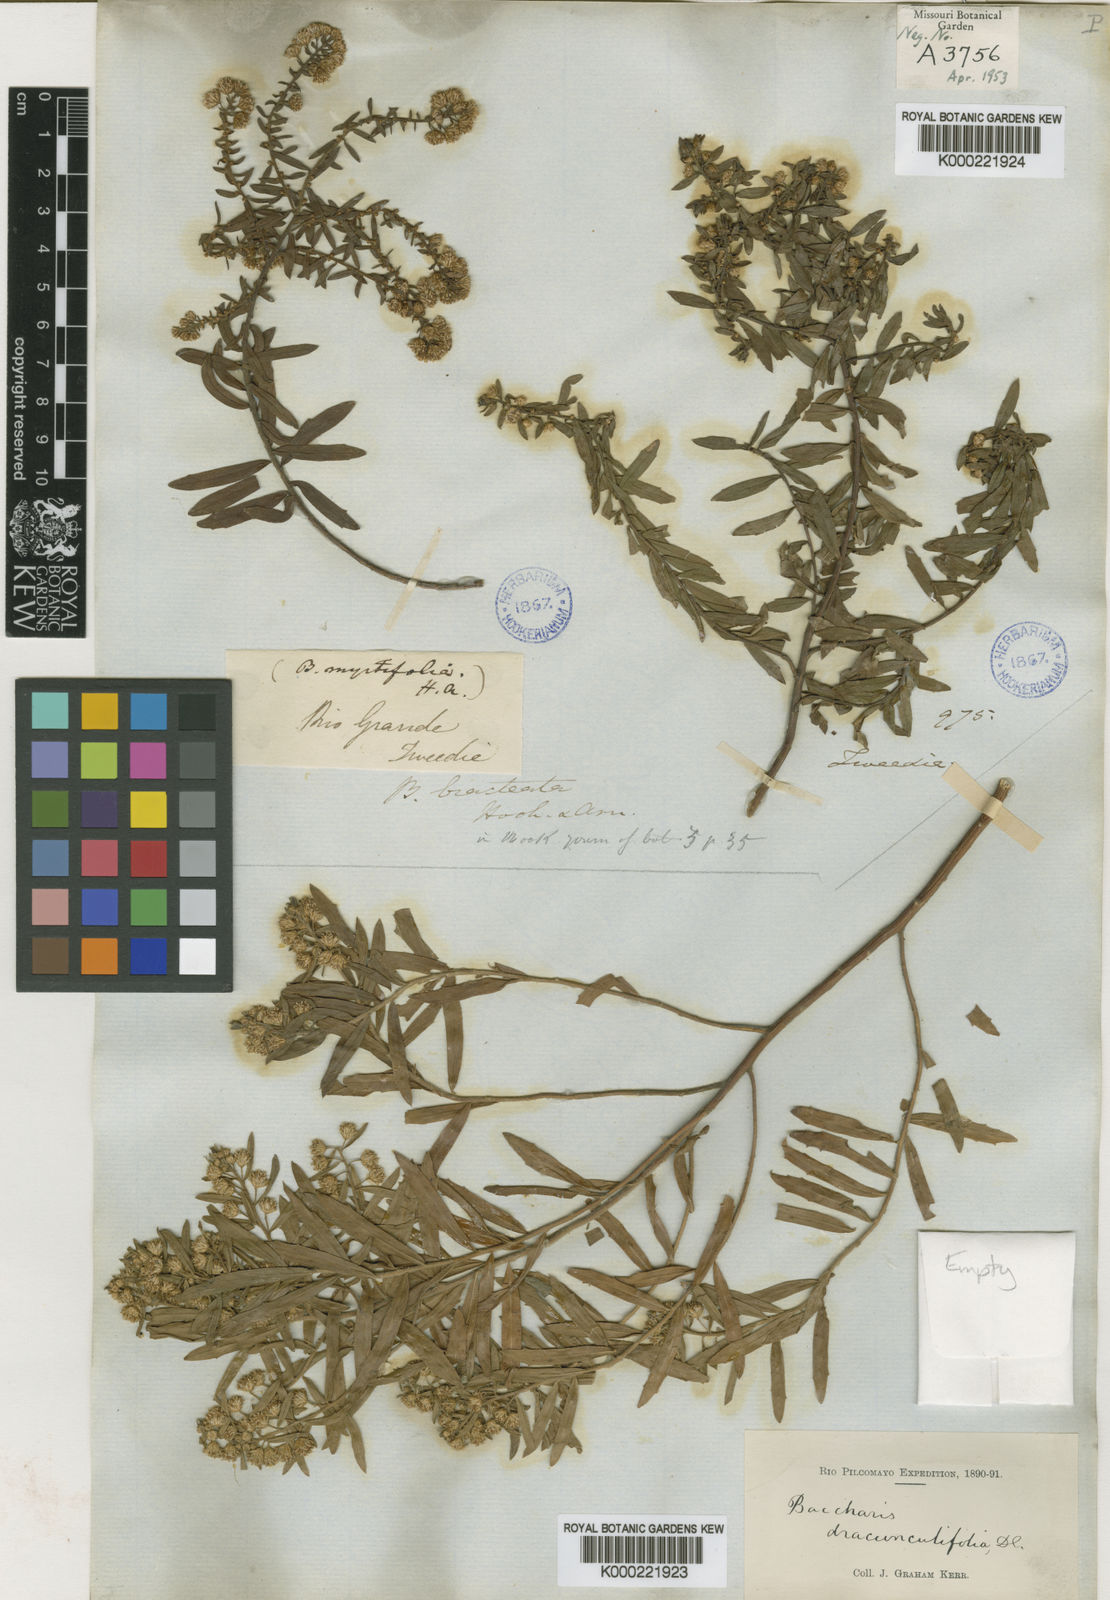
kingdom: Plantae
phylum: Tracheophyta
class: Magnoliopsida
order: Asterales
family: Asteraceae
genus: Baccharis
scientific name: Baccharis dracunculifolia
